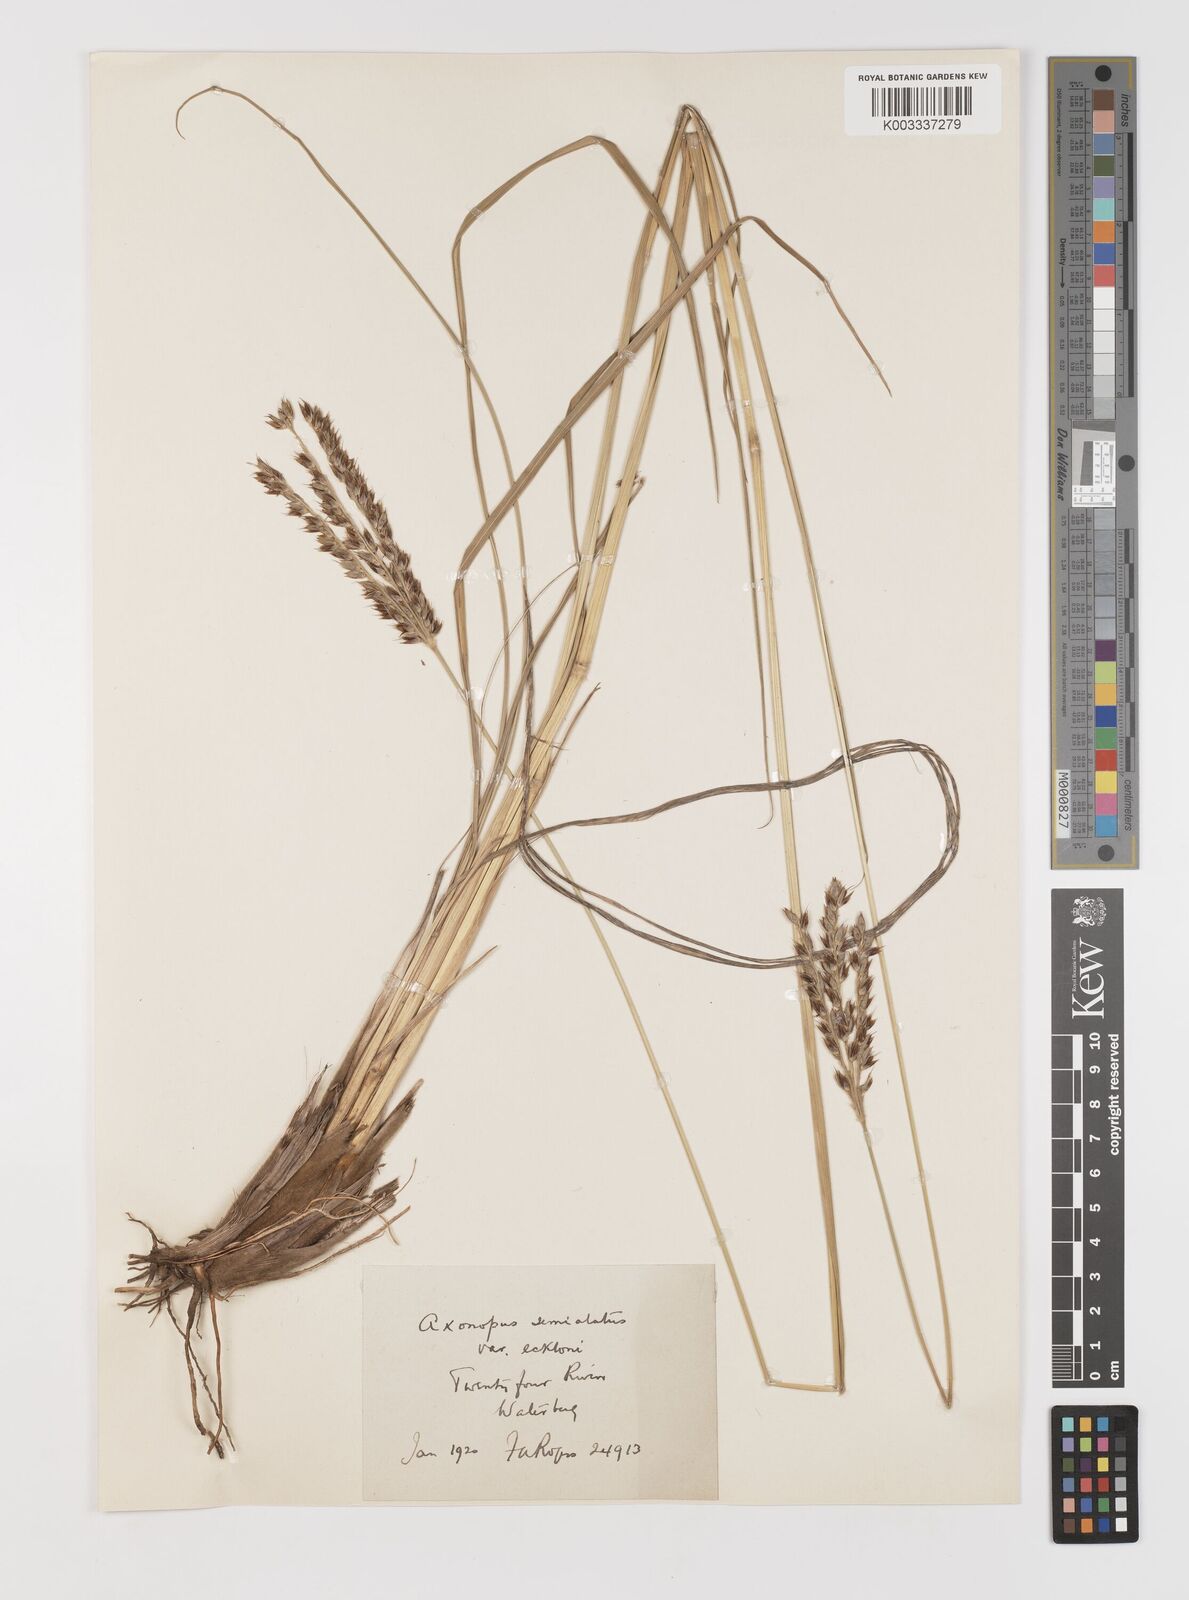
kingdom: Plantae
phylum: Tracheophyta
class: Liliopsida
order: Poales
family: Poaceae
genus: Alloteropsis
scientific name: Alloteropsis semialata
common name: Cockatoo grass
